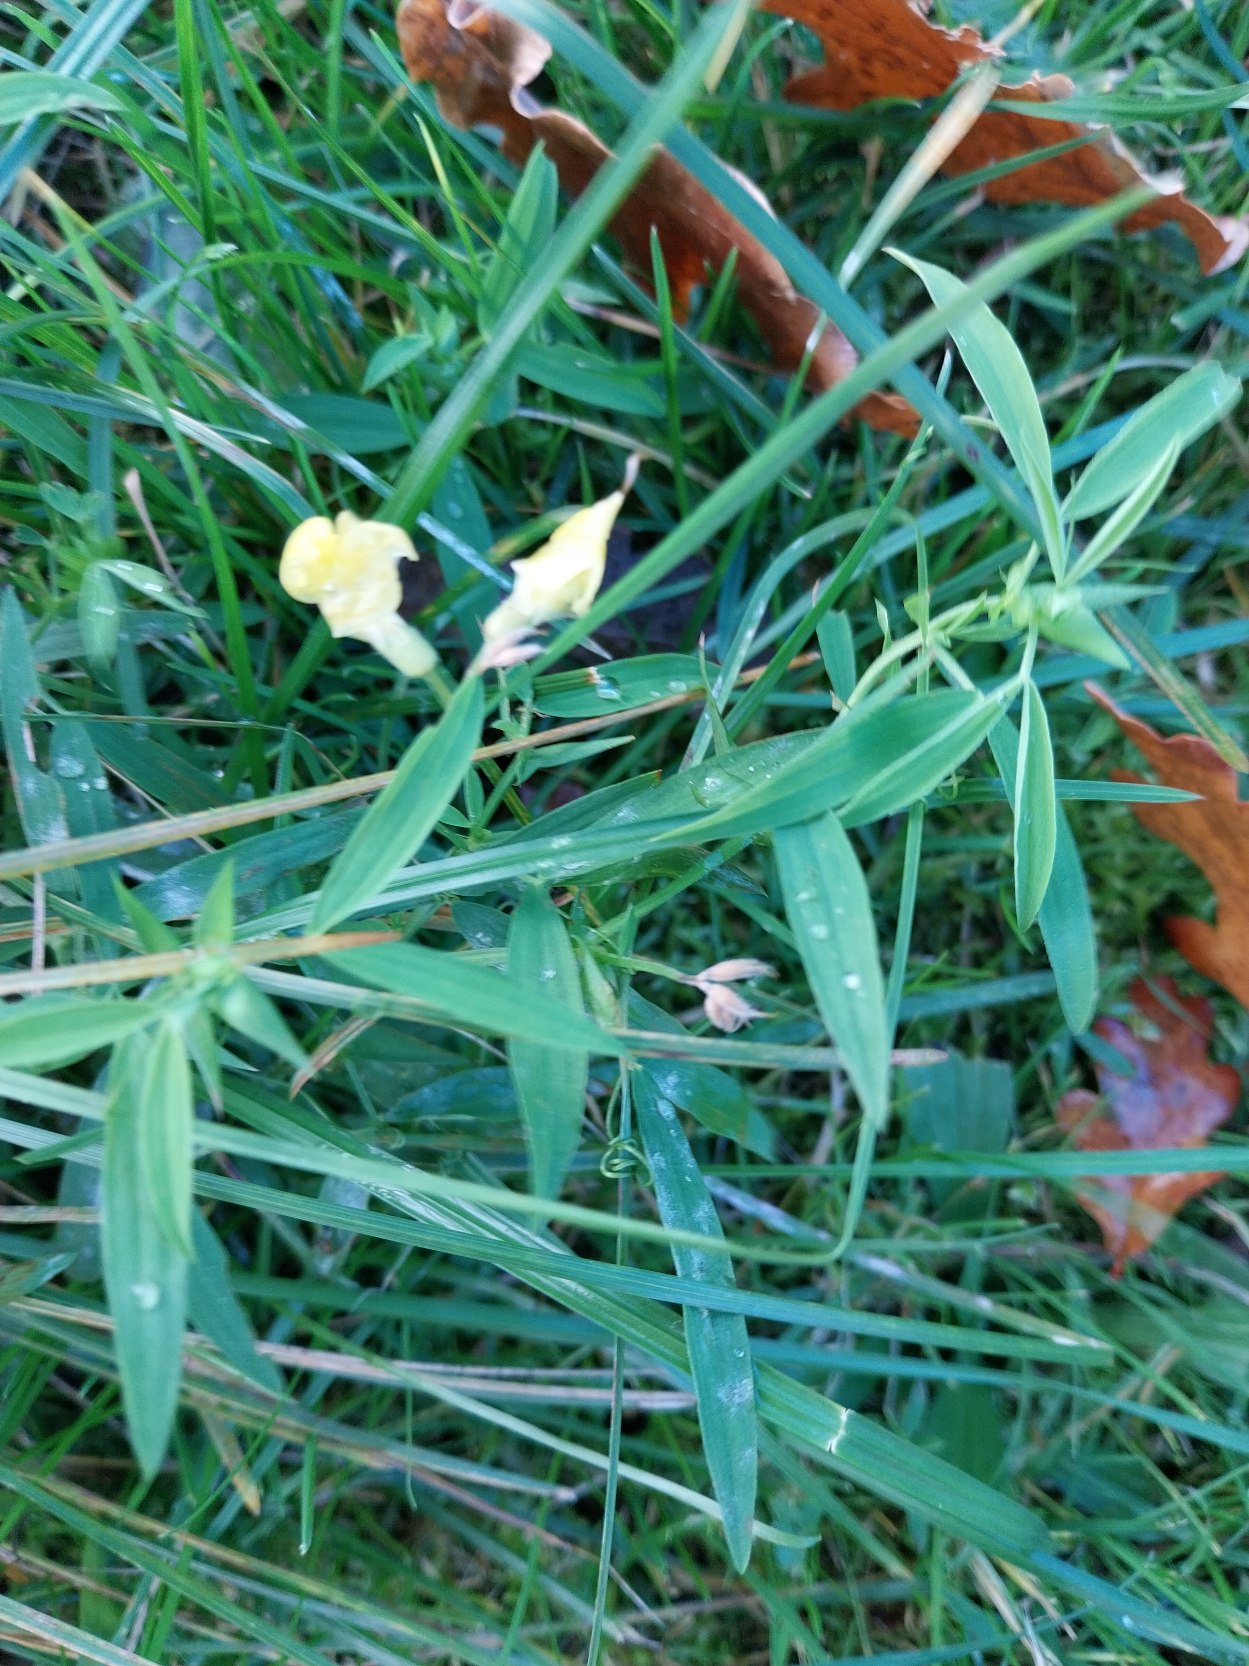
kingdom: Plantae
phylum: Tracheophyta
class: Magnoliopsida
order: Fabales
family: Fabaceae
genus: Lathyrus
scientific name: Lathyrus pratensis
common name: Gul fladbælg
